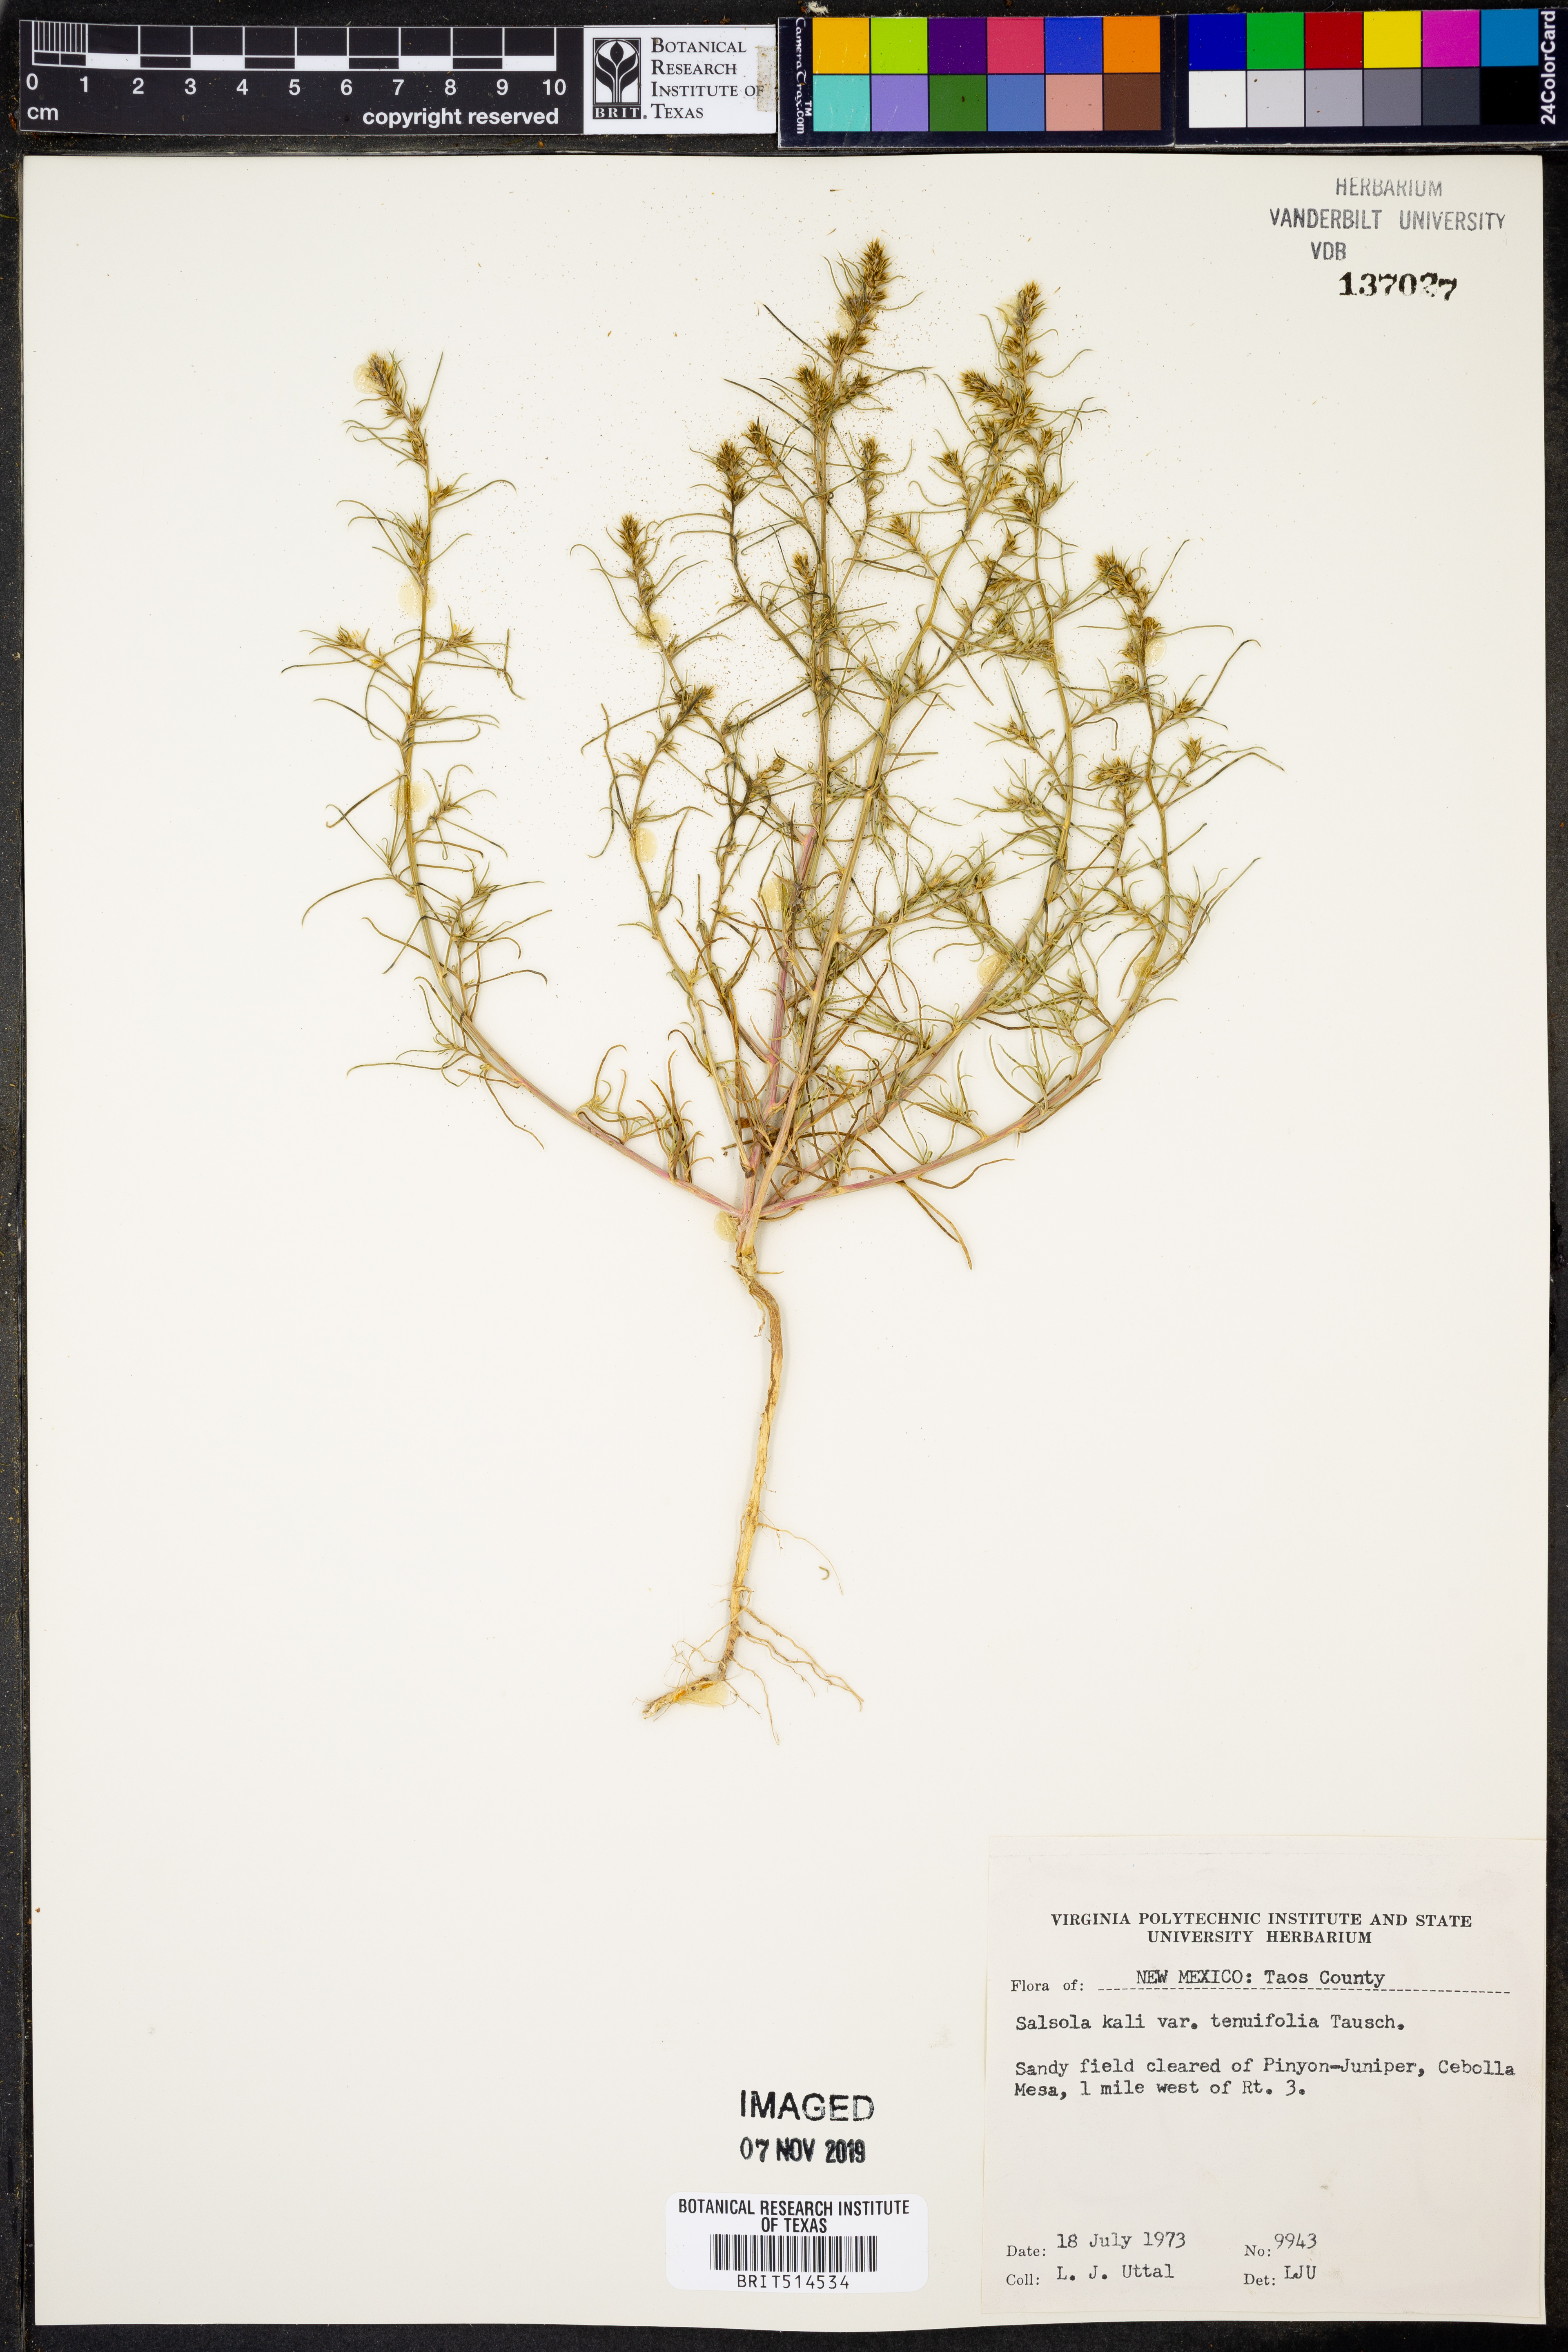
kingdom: Plantae
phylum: Tracheophyta
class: Magnoliopsida
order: Caryophyllales
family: Amaranthaceae
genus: Salsola
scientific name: Salsola tragus
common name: Prickly russian thistle
